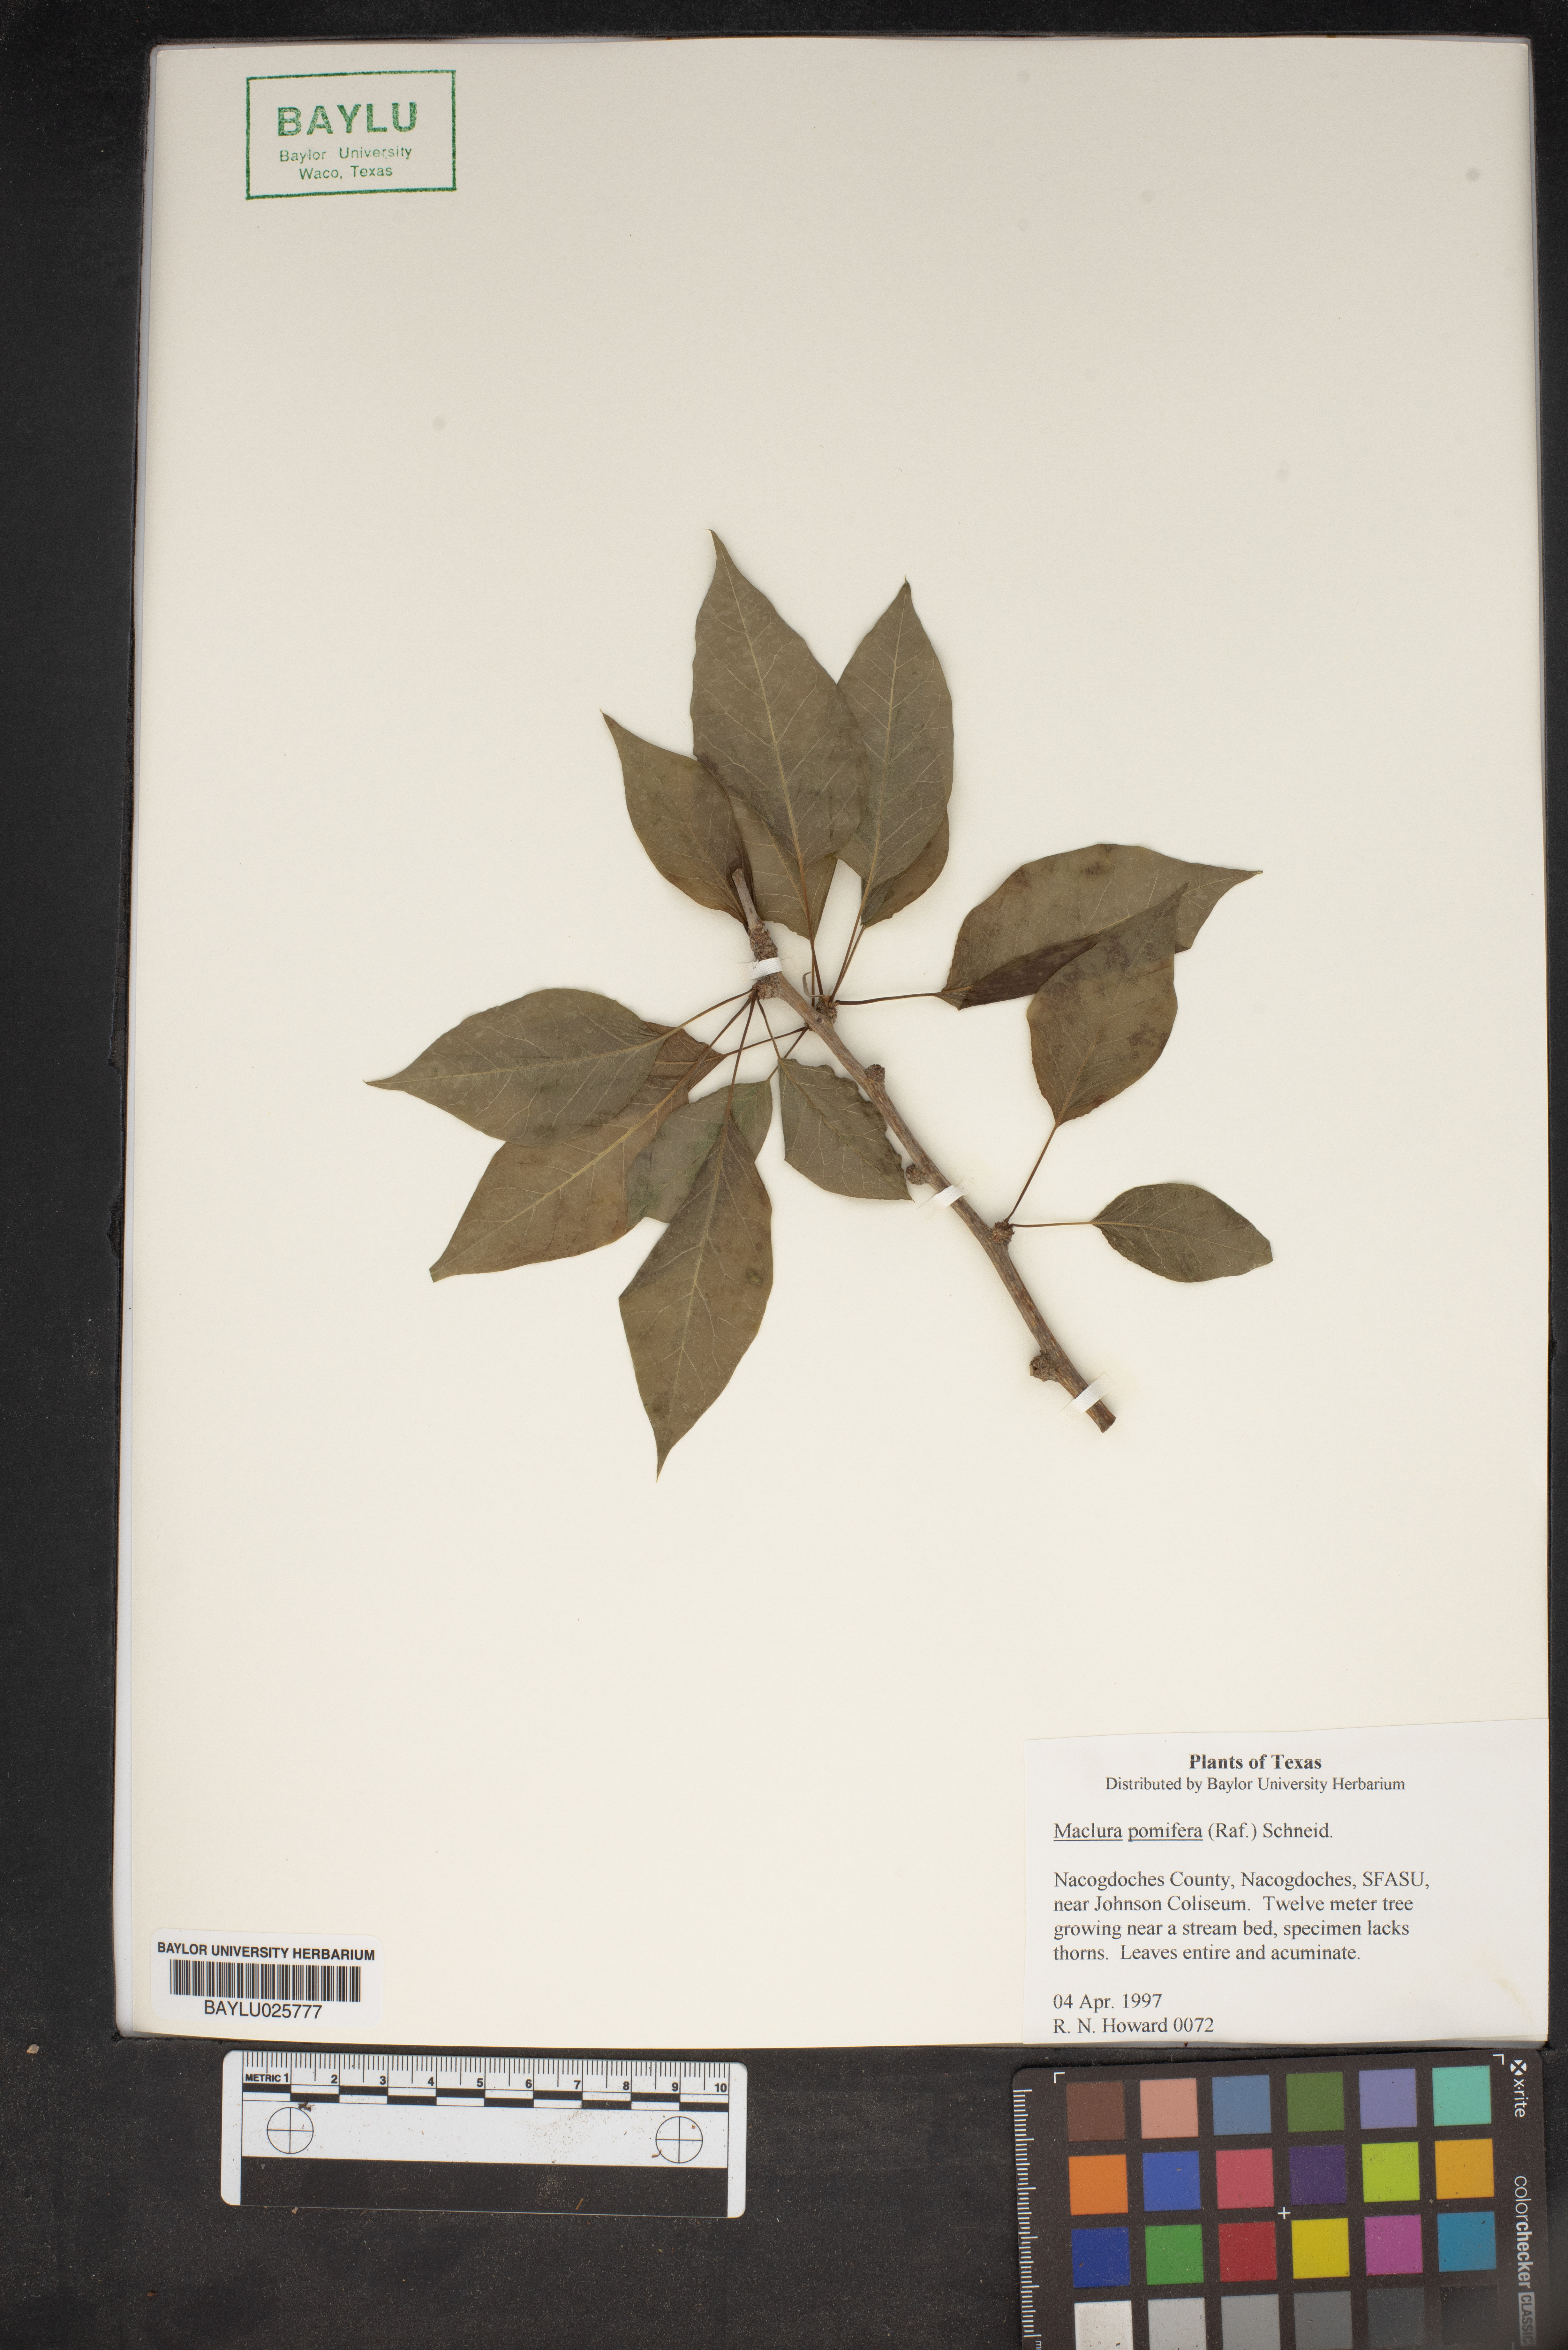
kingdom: Plantae
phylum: Tracheophyta
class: Magnoliopsida
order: Rosales
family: Moraceae
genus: Maclura
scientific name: Maclura pomifera
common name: Osage-orange
